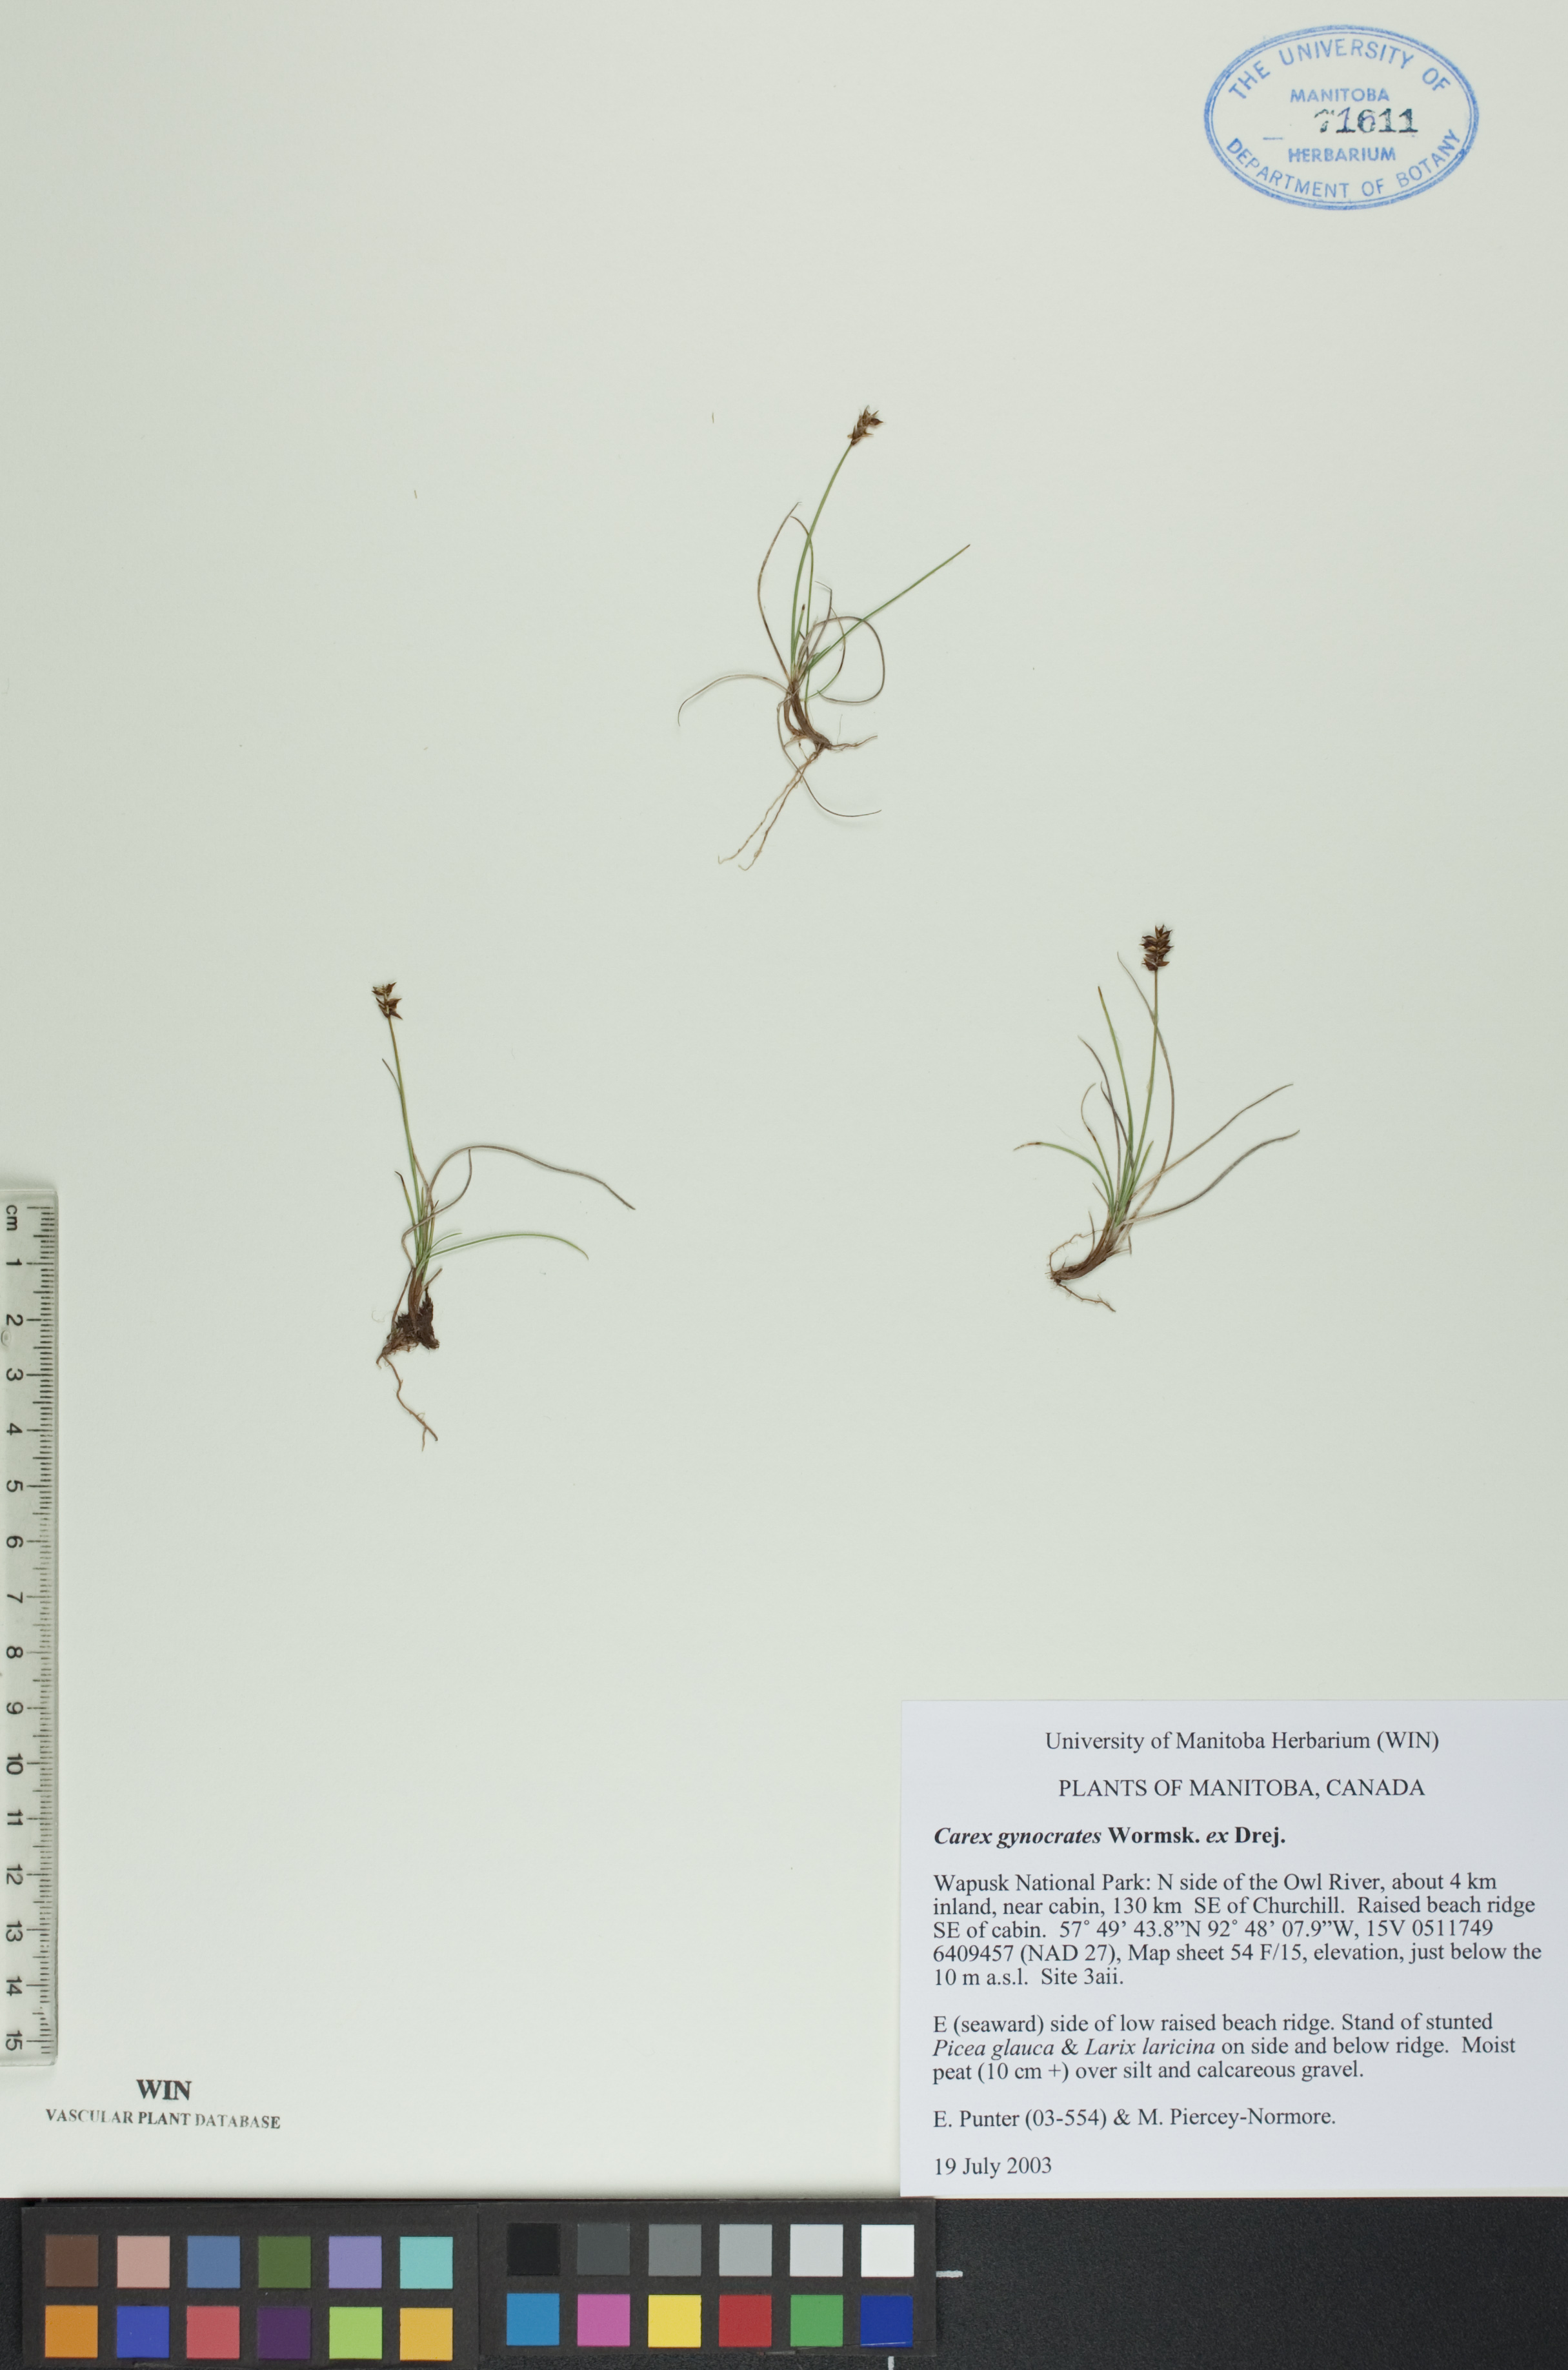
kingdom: Plantae
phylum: Tracheophyta
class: Liliopsida
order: Poales
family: Cyperaceae
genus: Carex
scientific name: Carex nardina
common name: Nard sedge
